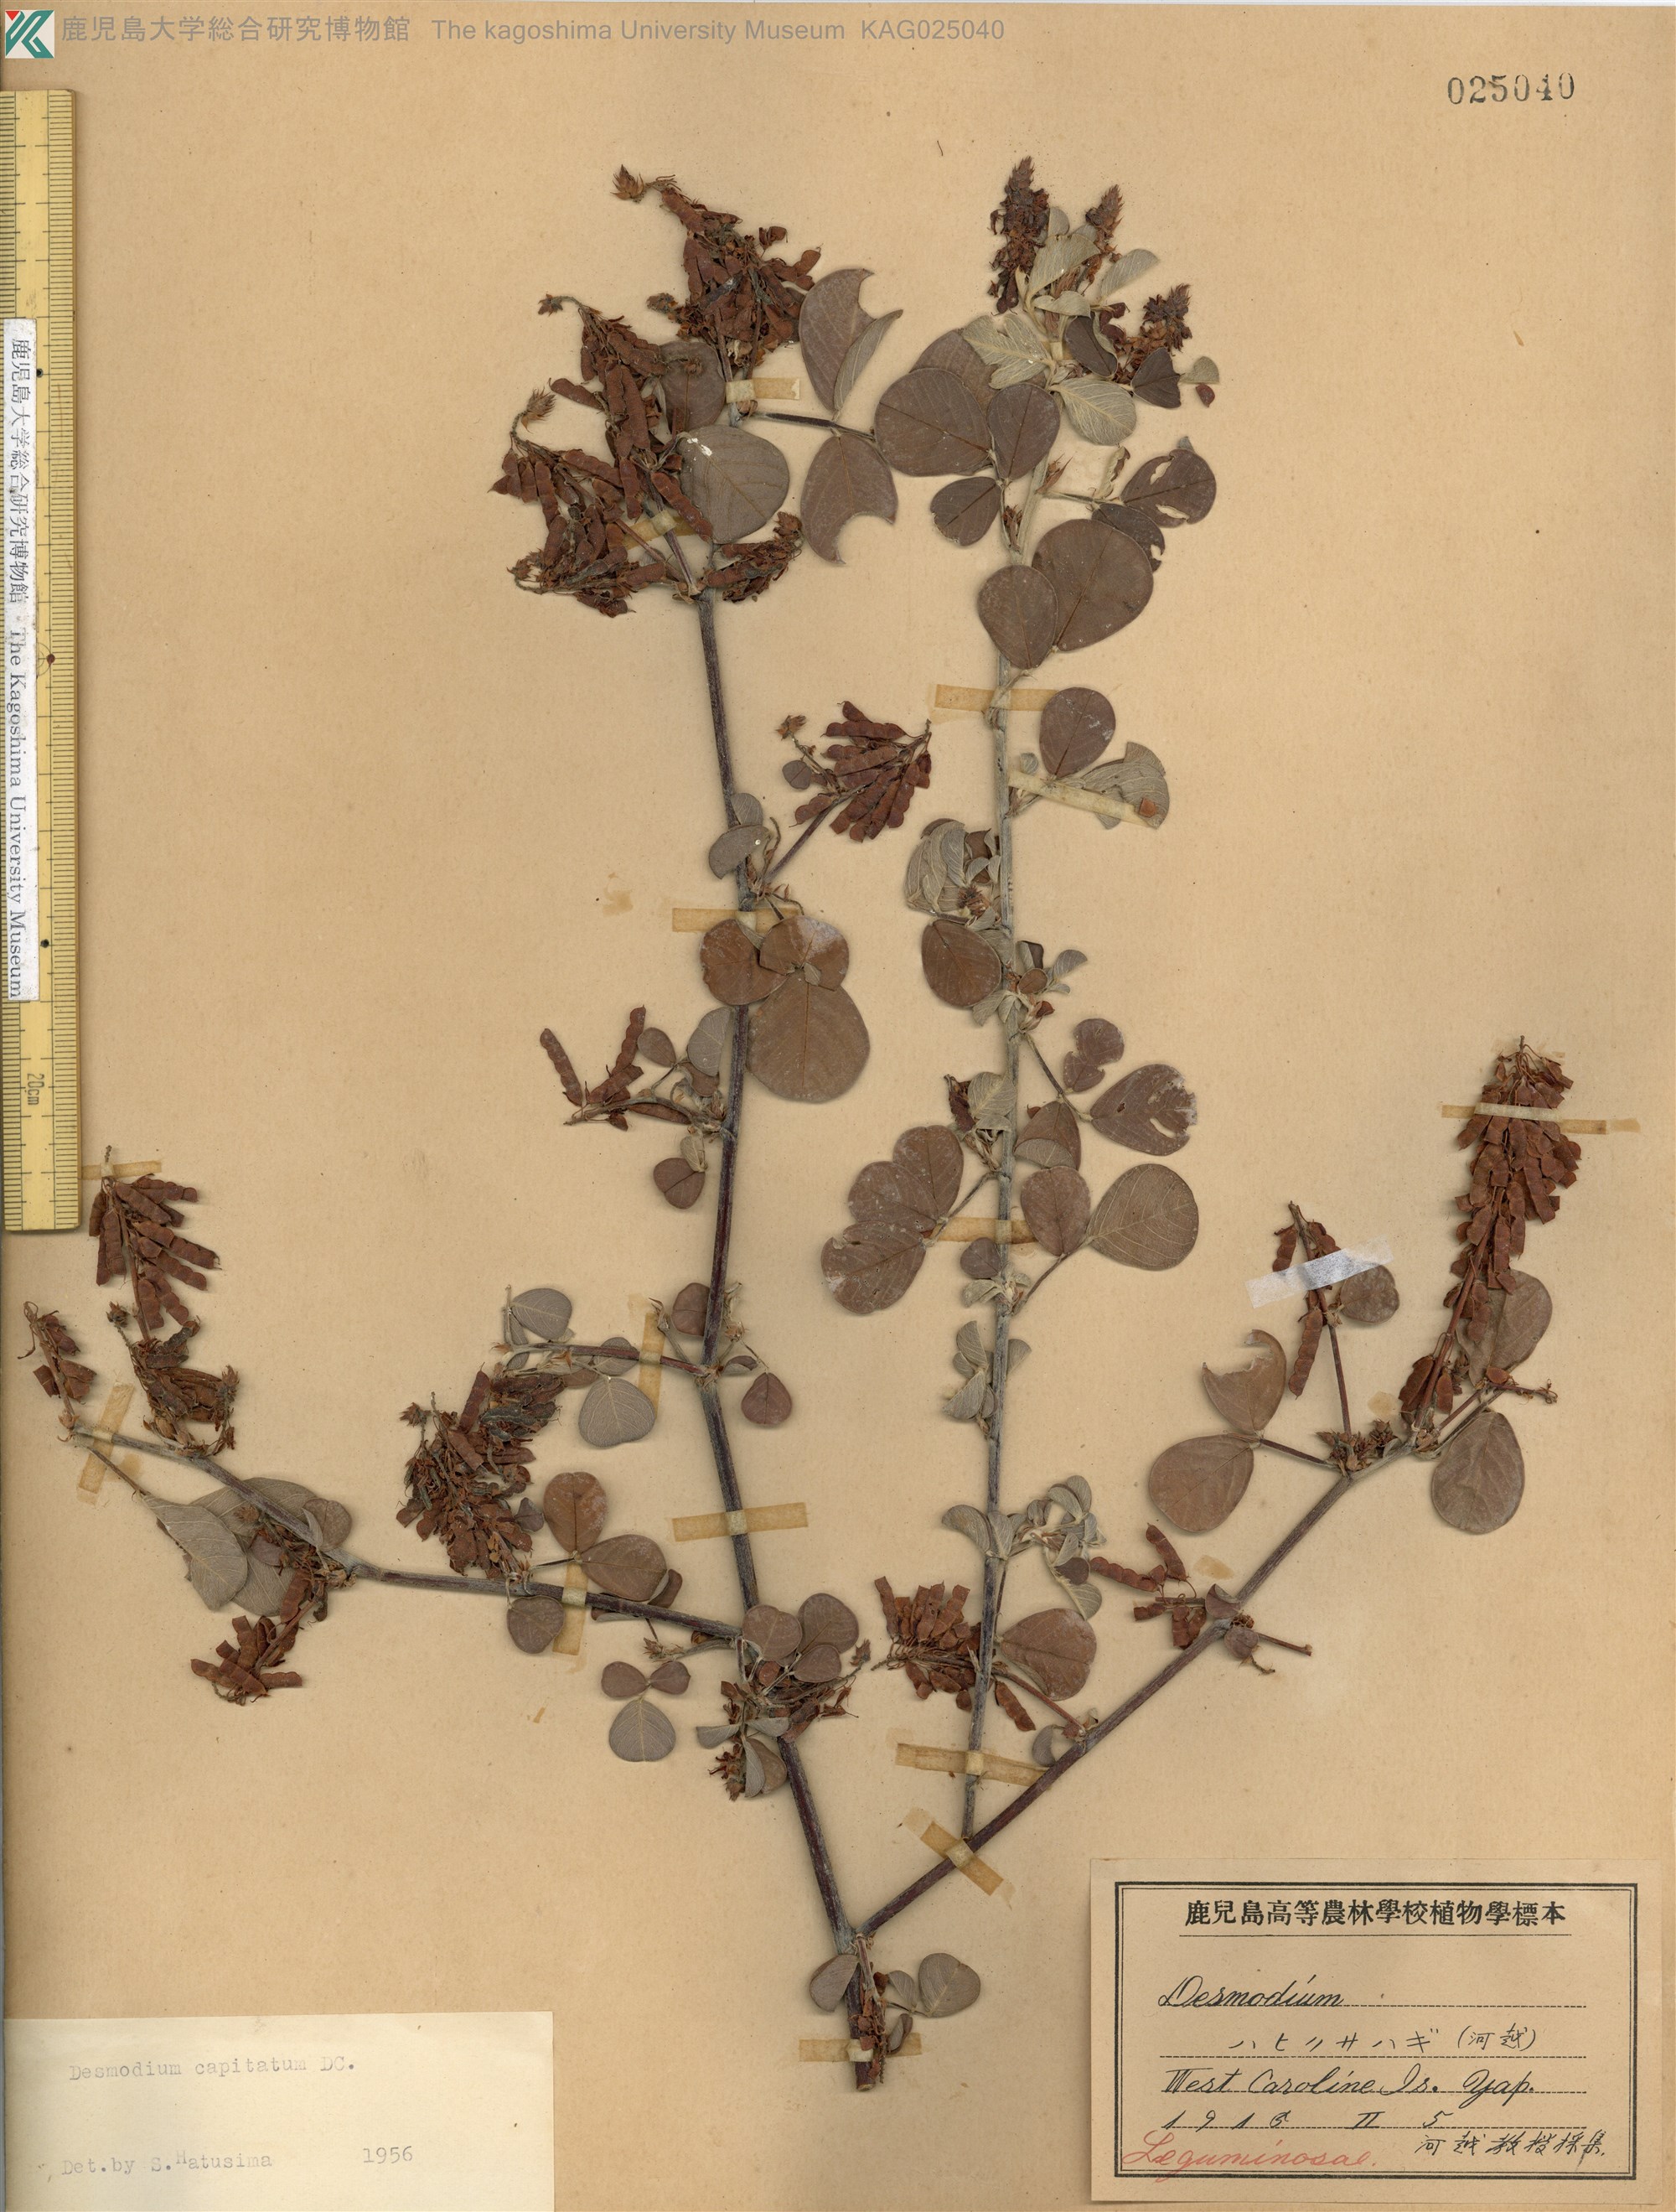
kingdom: Plantae
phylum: Tracheophyta
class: Magnoliopsida
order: Fabales
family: Fabaceae
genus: Grona
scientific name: Grona retroflexa
